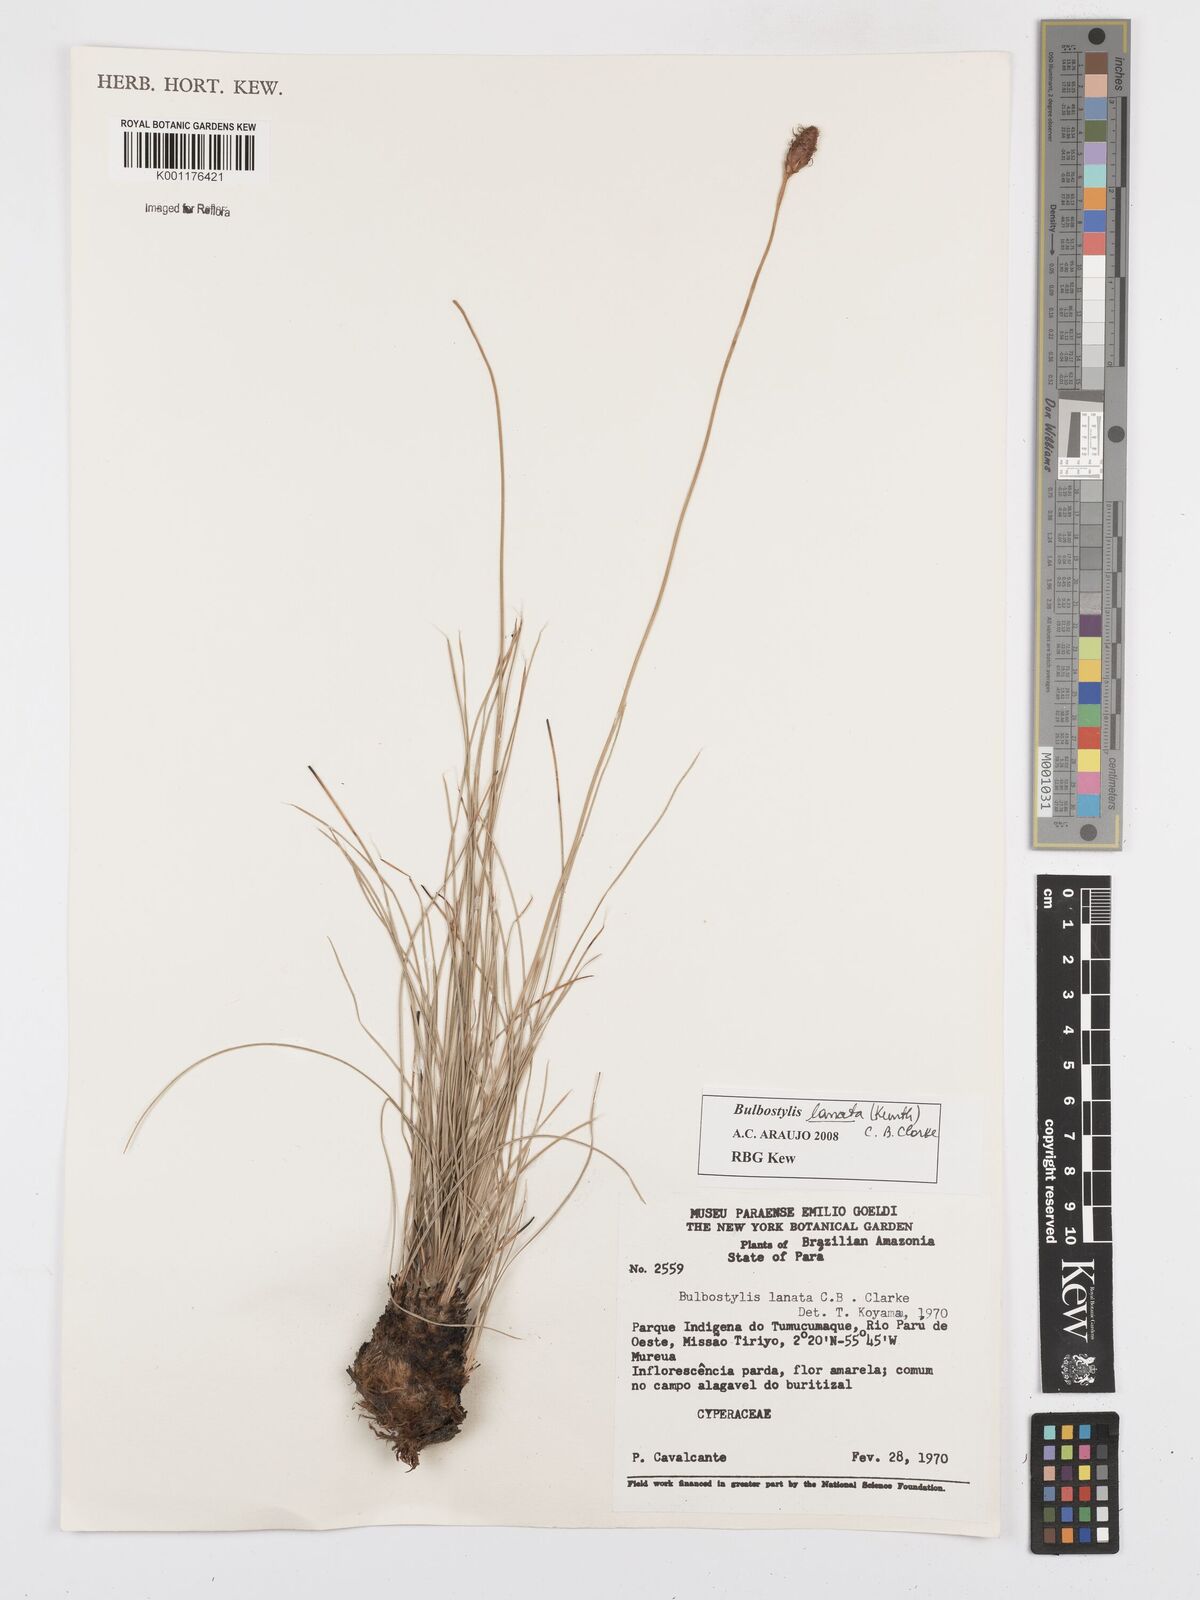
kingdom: Plantae
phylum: Tracheophyta
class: Liliopsida
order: Poales
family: Cyperaceae
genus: Bulbostylis
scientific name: Bulbostylis lanata
